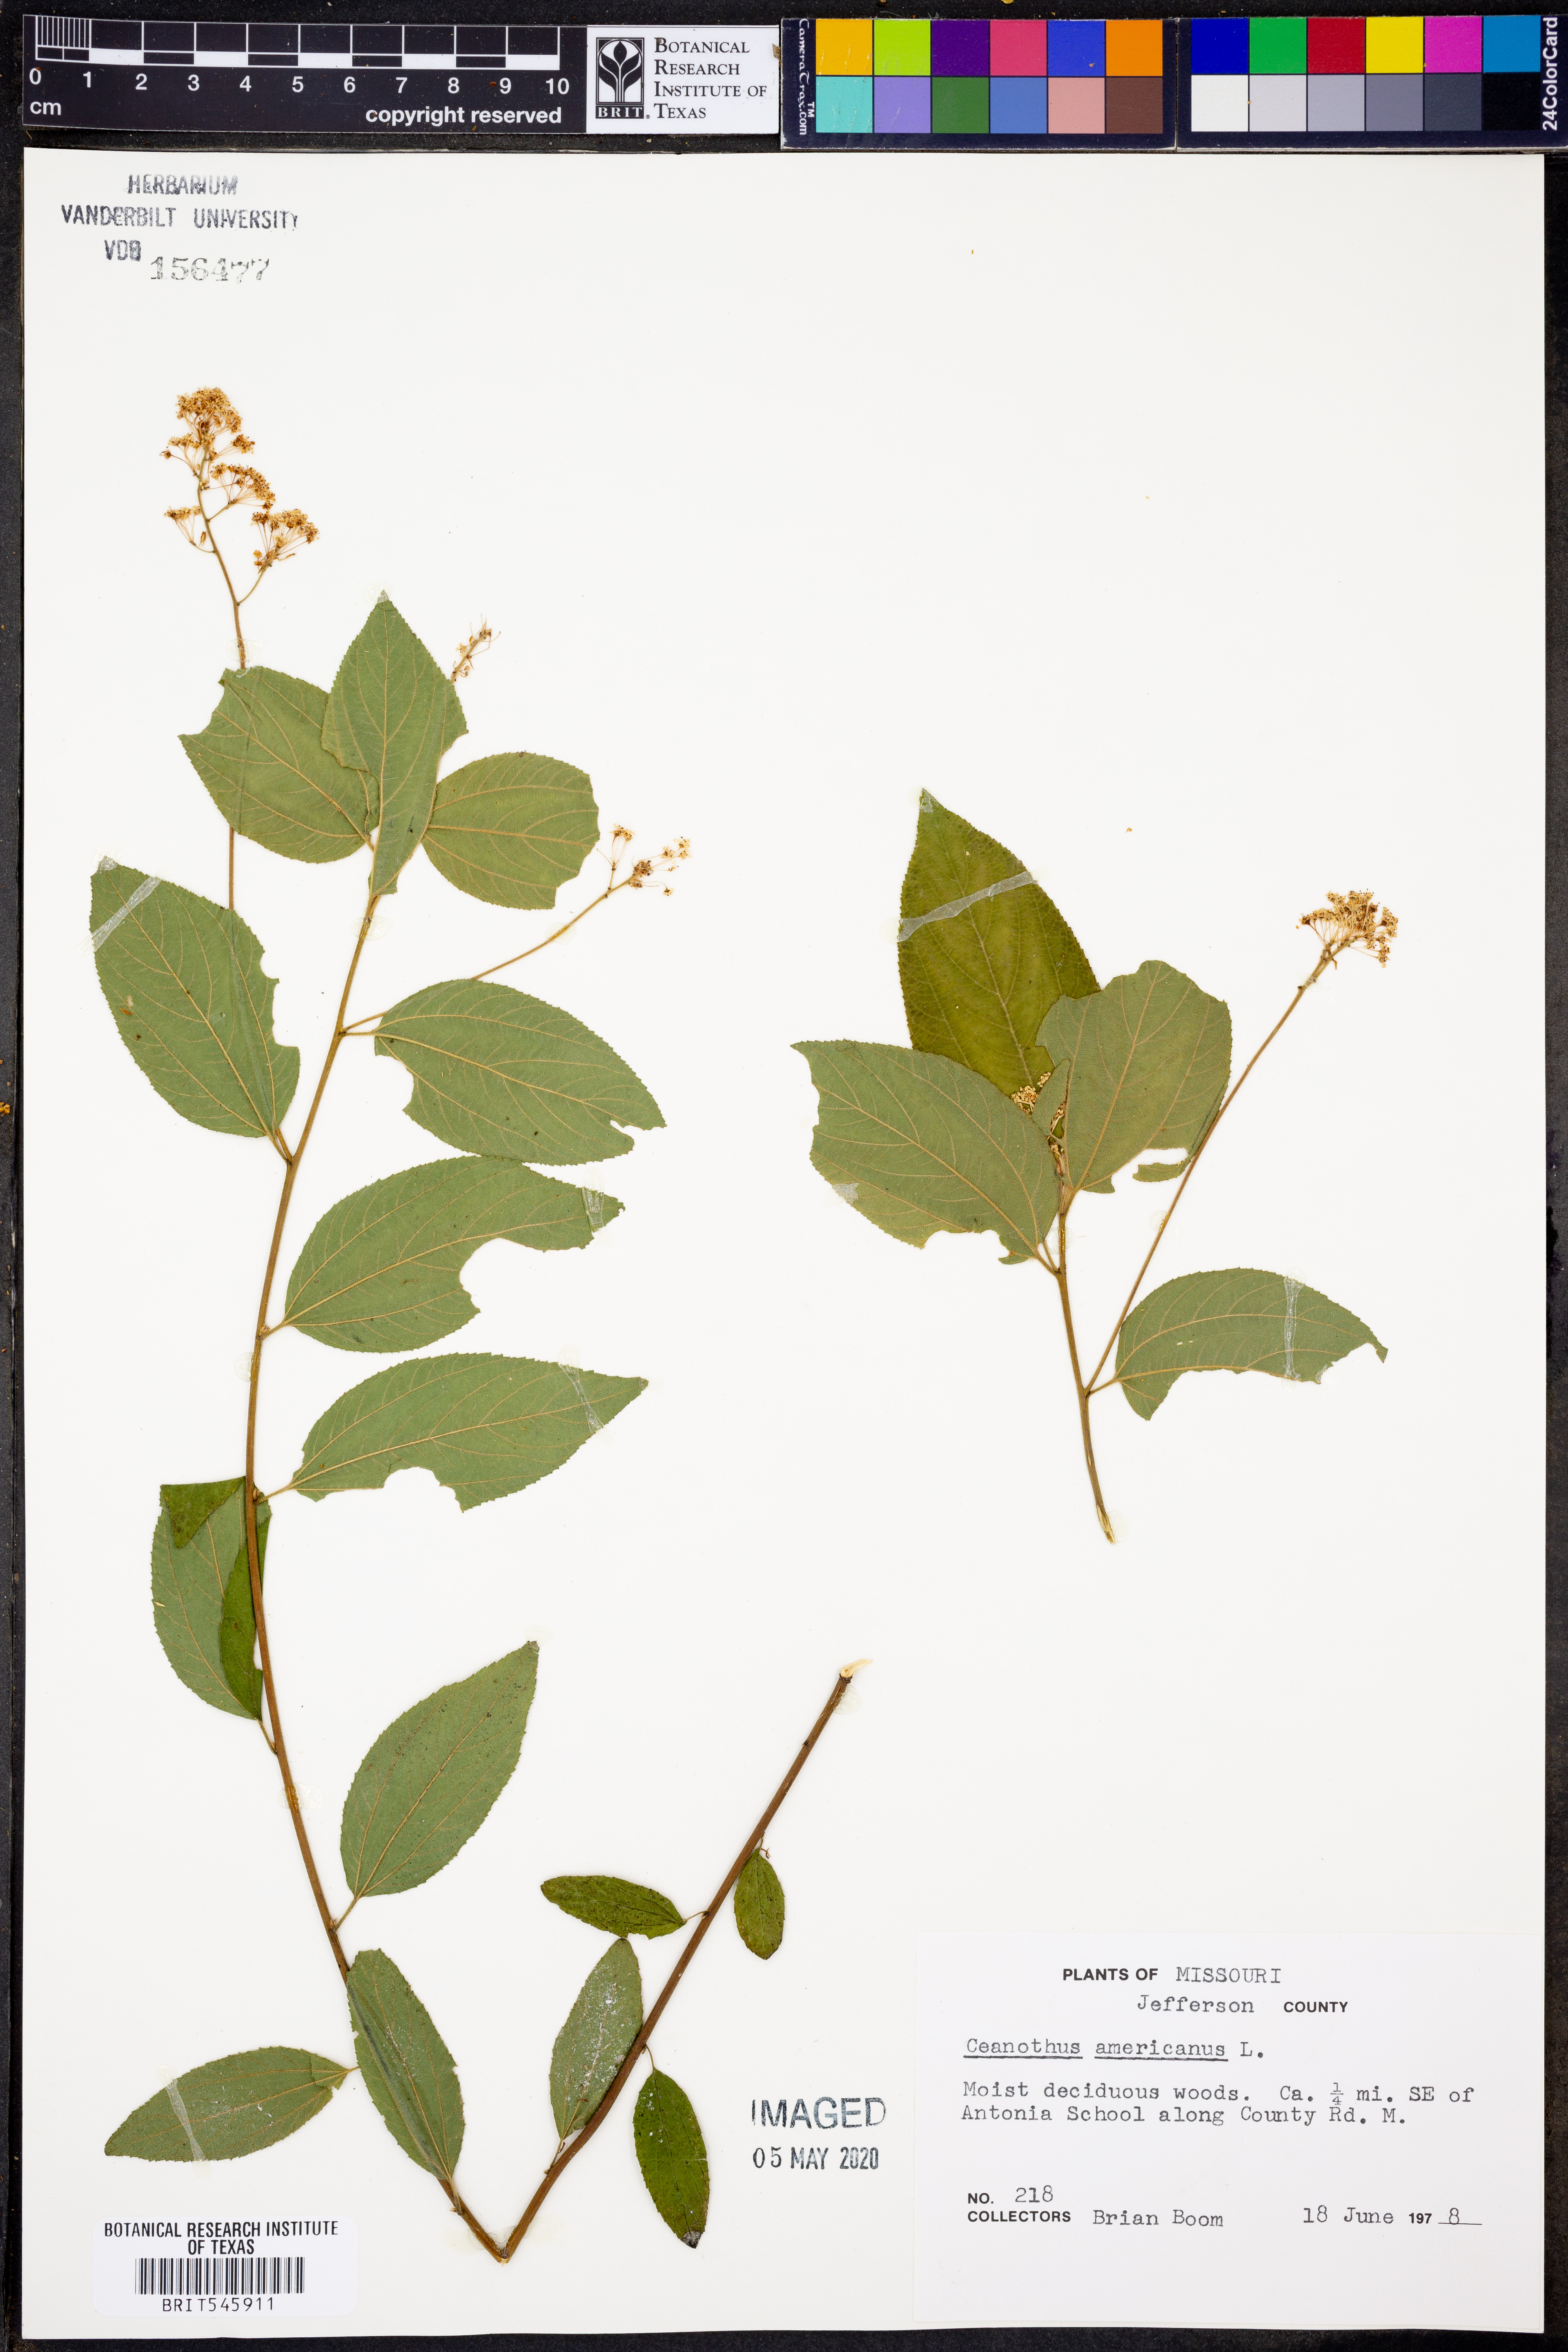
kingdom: Plantae
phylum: Tracheophyta
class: Magnoliopsida
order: Rosales
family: Rhamnaceae
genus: Ceanothus
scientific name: Ceanothus americanus
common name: Redroot
